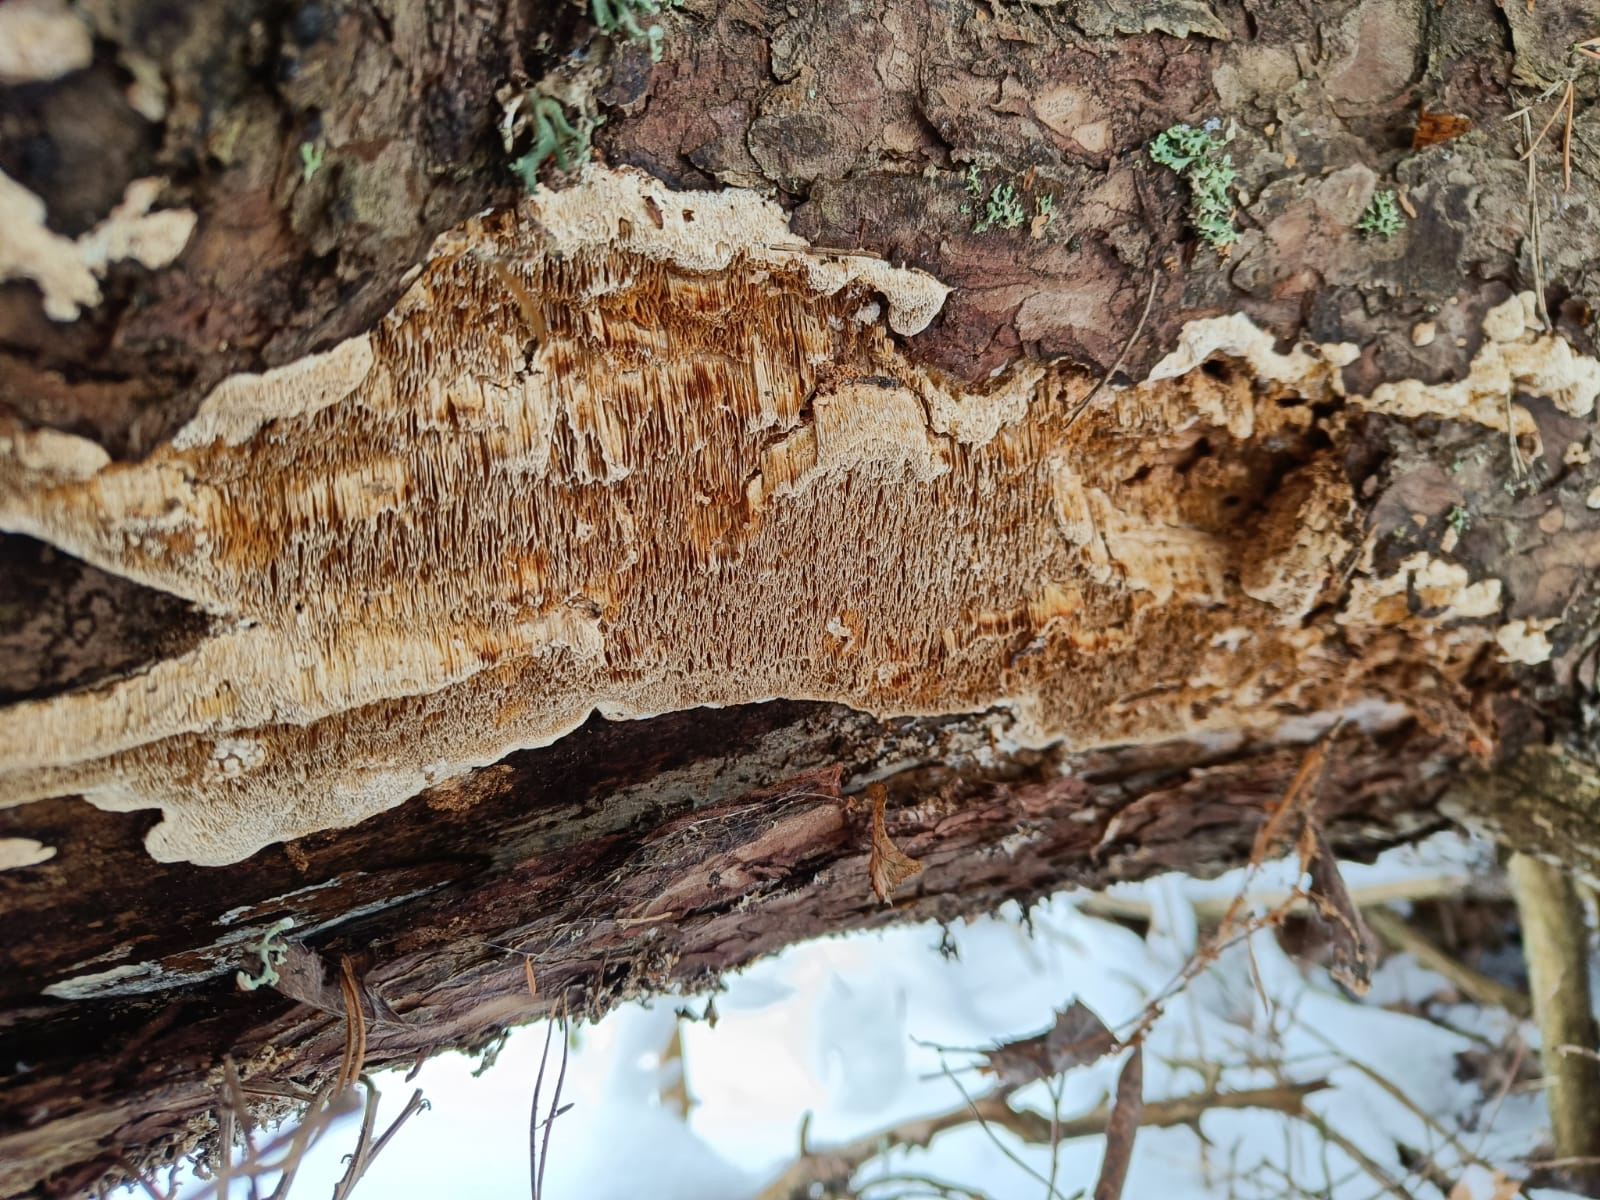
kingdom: Fungi
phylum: Basidiomycota
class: Agaricomycetes
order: Polyporales
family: Fomitopsidaceae
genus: Antrodia
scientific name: Antrodia sinuosa
